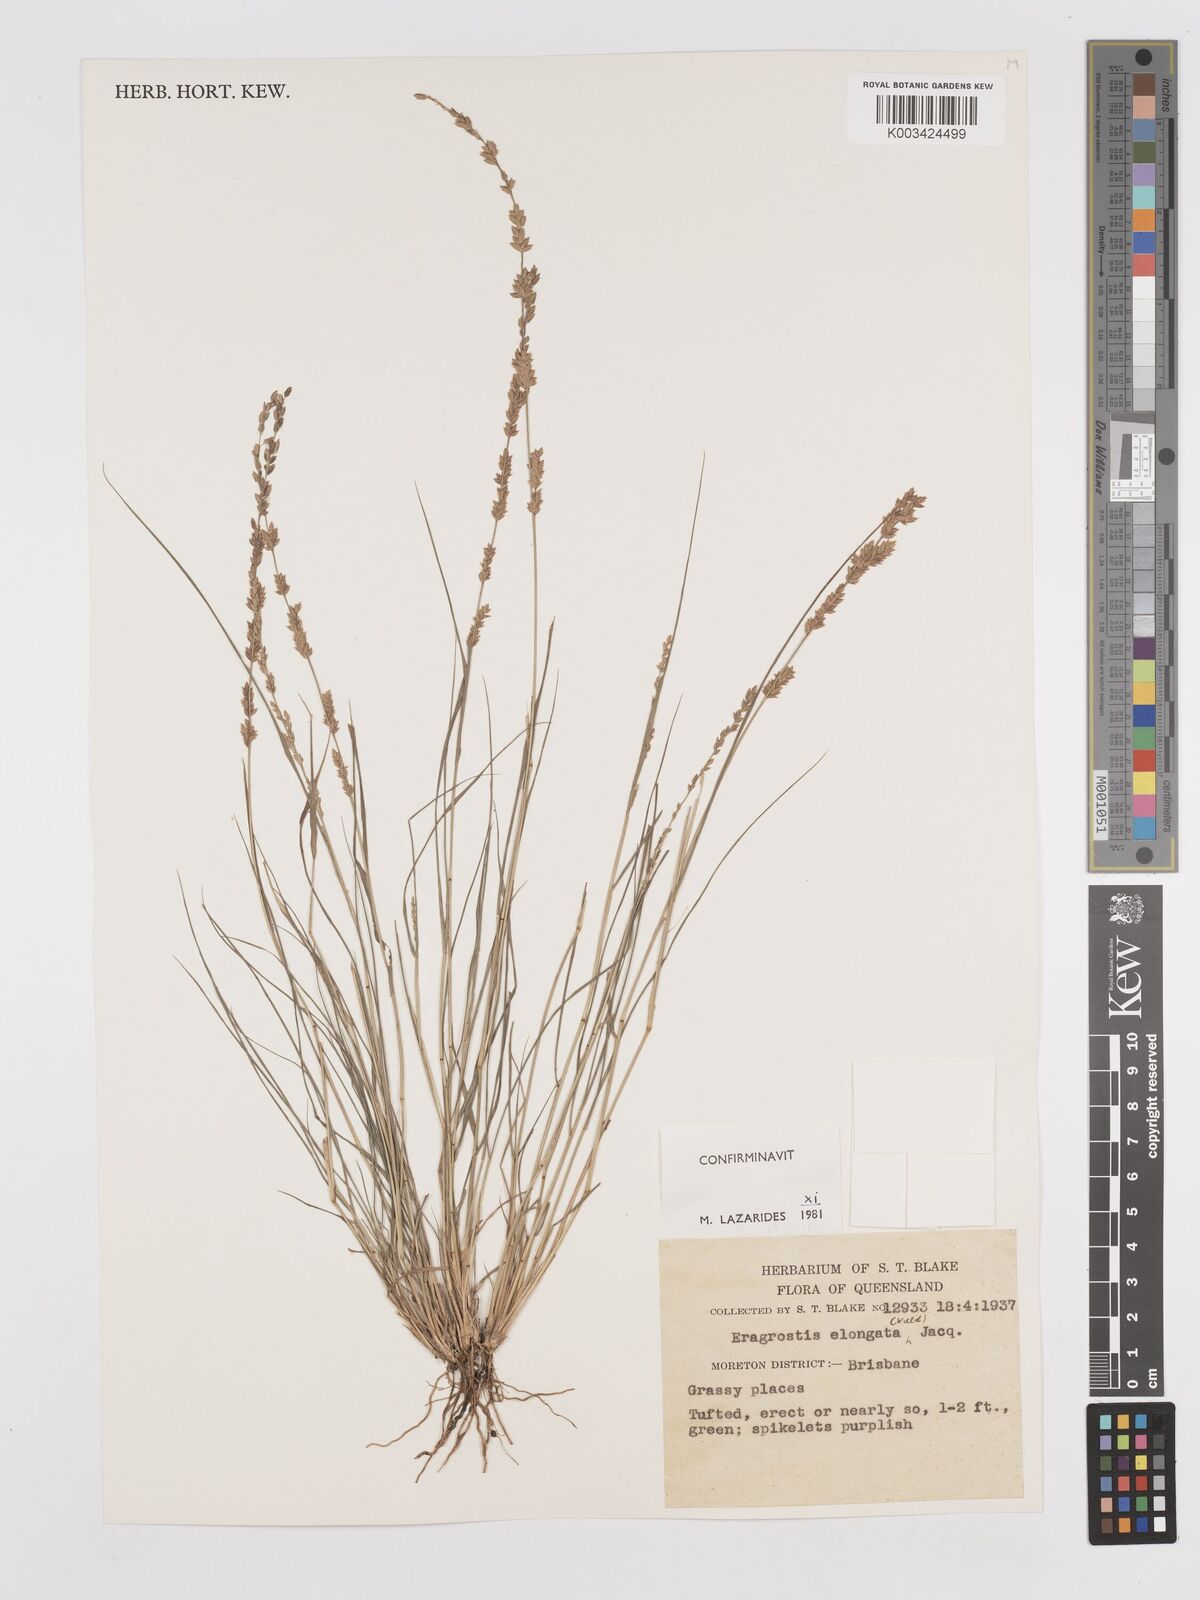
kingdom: Plantae
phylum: Tracheophyta
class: Liliopsida
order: Poales
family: Poaceae
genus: Eragrostis
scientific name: Eragrostis elongata
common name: Long lovegrass
